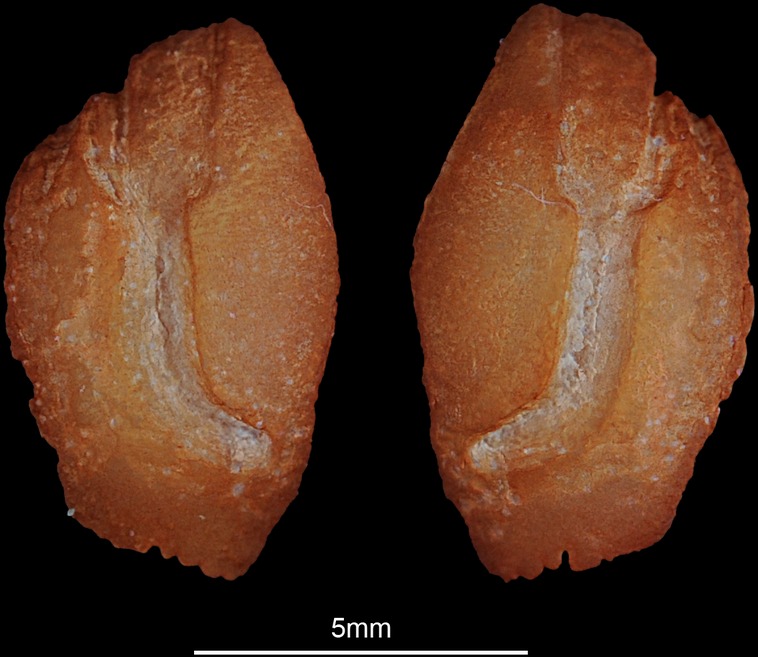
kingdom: Animalia
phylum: Chordata
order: Perciformes
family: Lutjanidae
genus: Lutjanus
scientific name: Lutjanus russellii
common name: Russell's snapper
